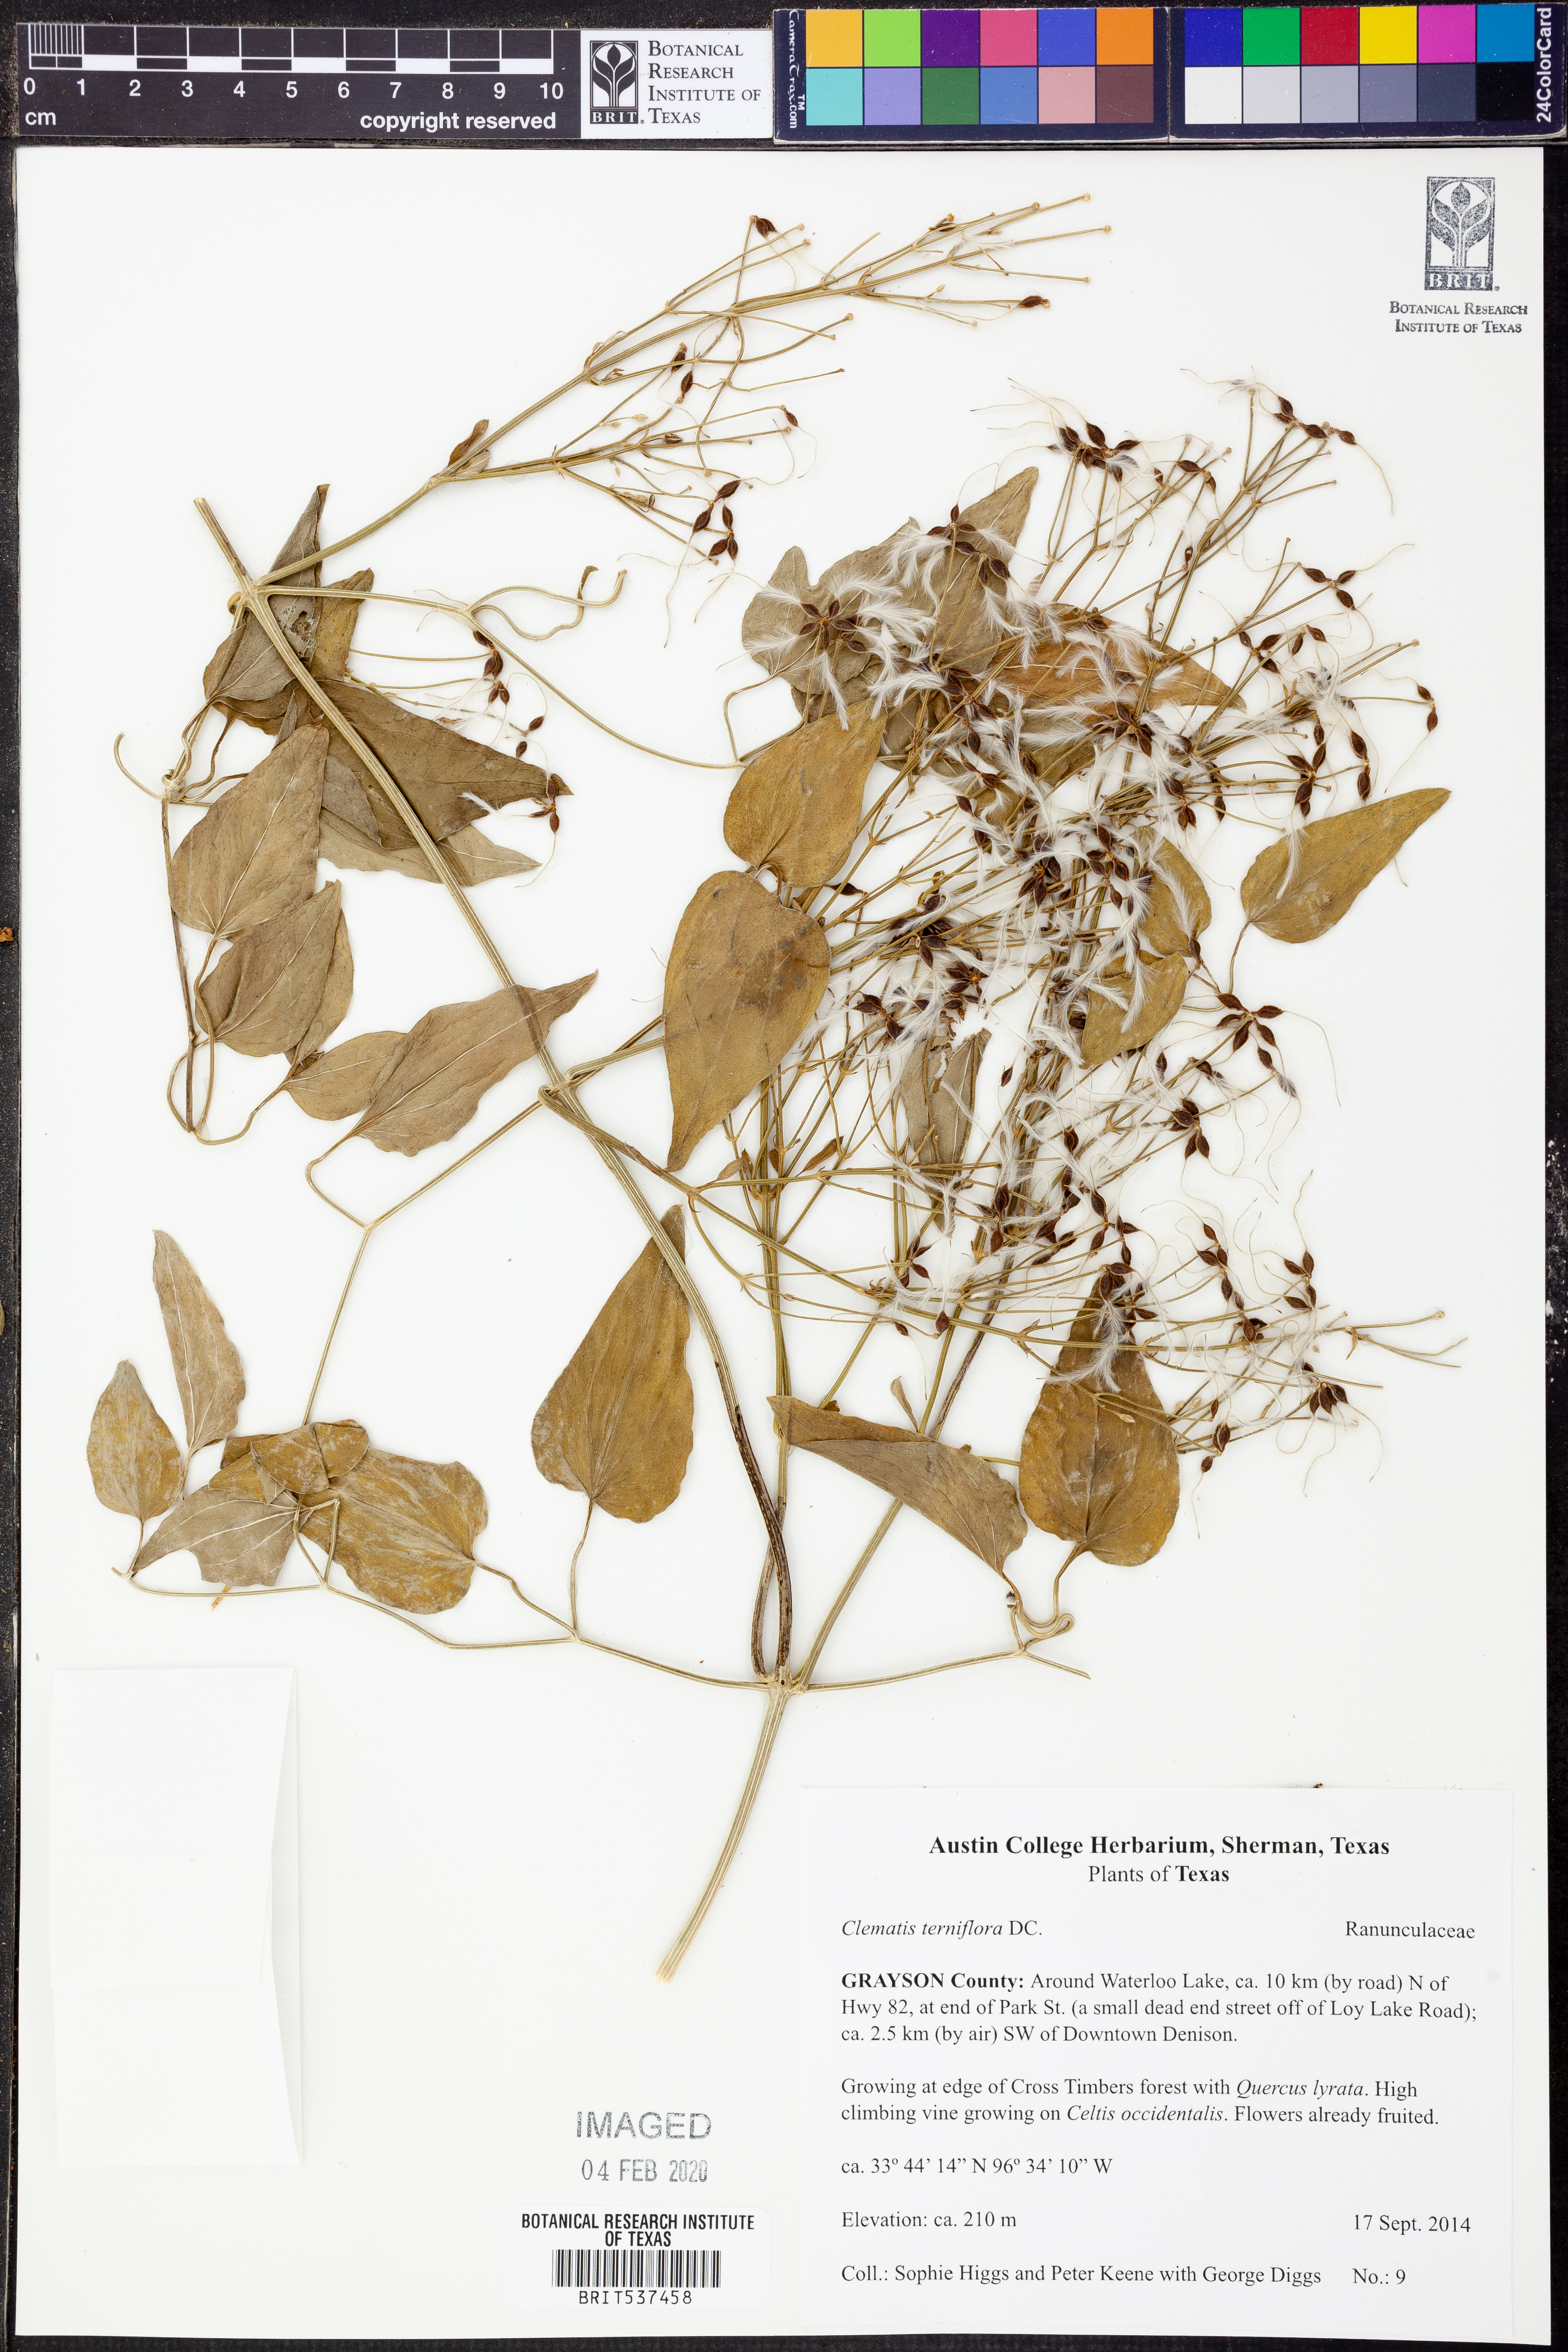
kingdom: Plantae
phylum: Tracheophyta
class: Magnoliopsida
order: Ranunculales
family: Ranunculaceae
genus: Clematis
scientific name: Clematis terniflora
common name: Sweet autumn clematis
